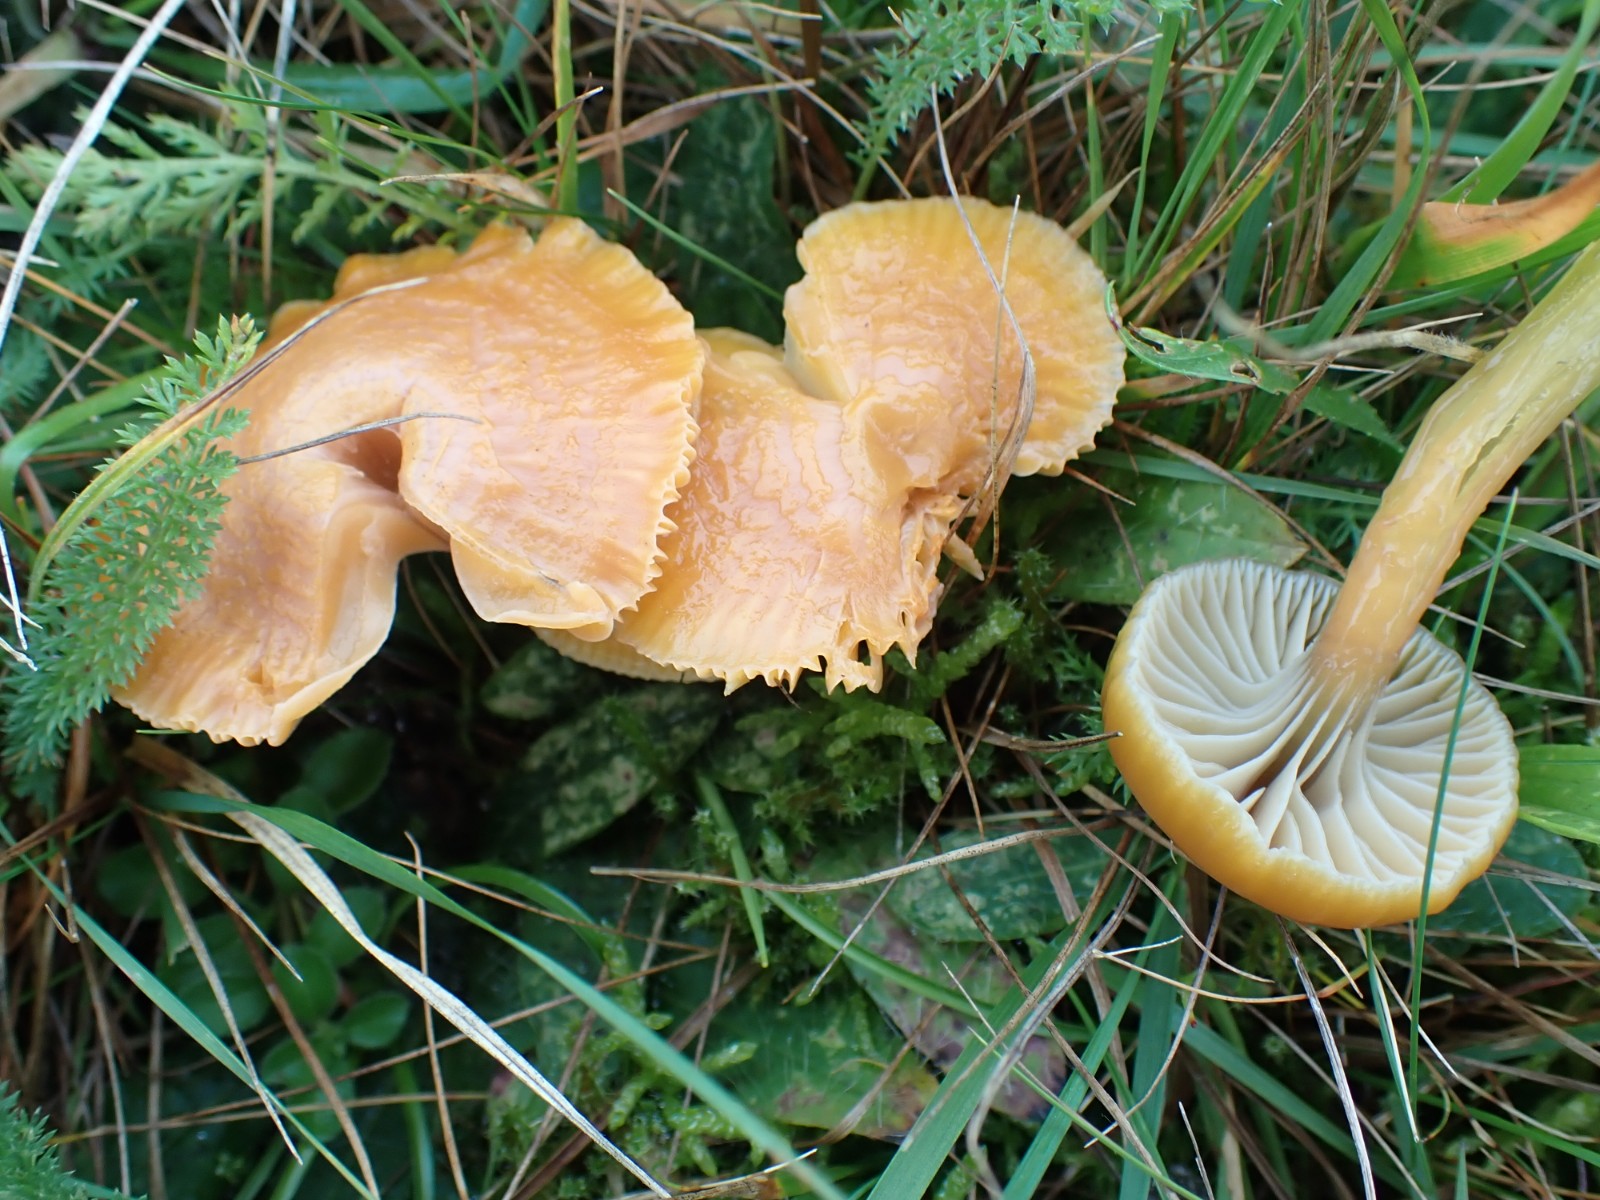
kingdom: Fungi
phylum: Basidiomycota
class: Agaricomycetes
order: Agaricales
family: Hygrophoraceae
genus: Gliophorus
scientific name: Gliophorus laetus
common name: brusk-vokshat
